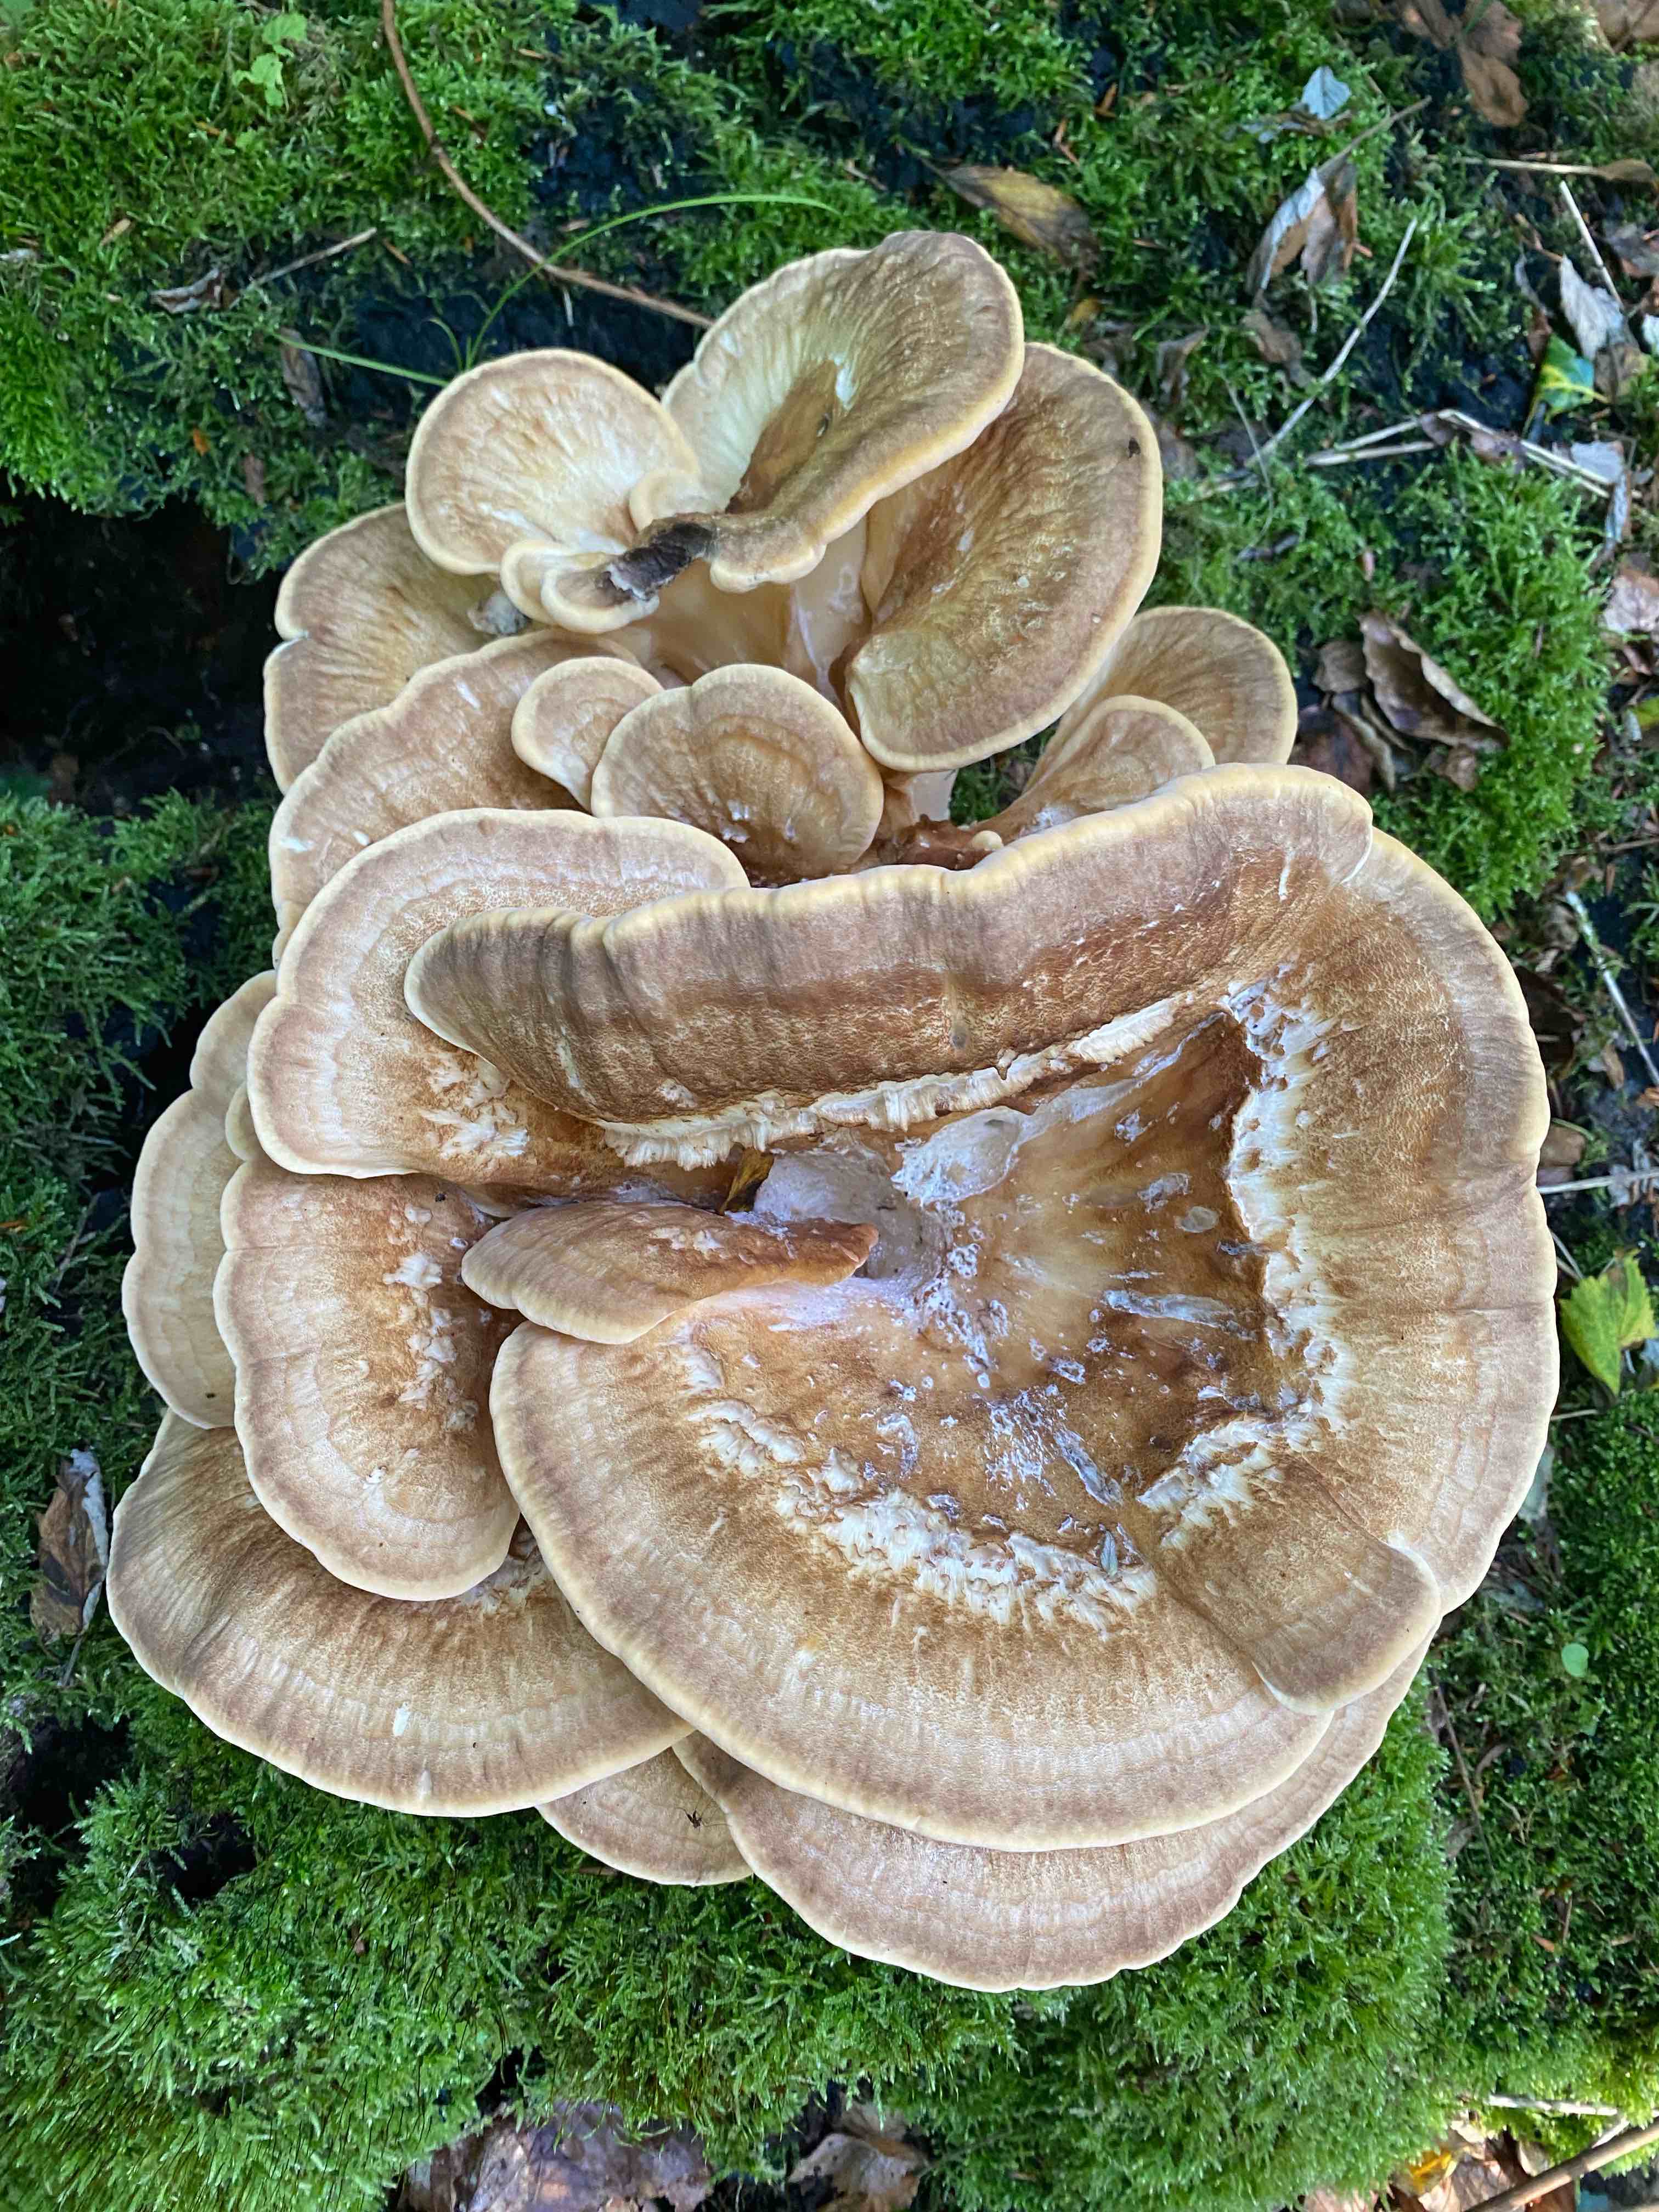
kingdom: Fungi
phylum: Basidiomycota
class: Agaricomycetes
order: Polyporales
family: Meripilaceae
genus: Meripilus
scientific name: Meripilus giganteus
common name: kæmpeporesvamp
